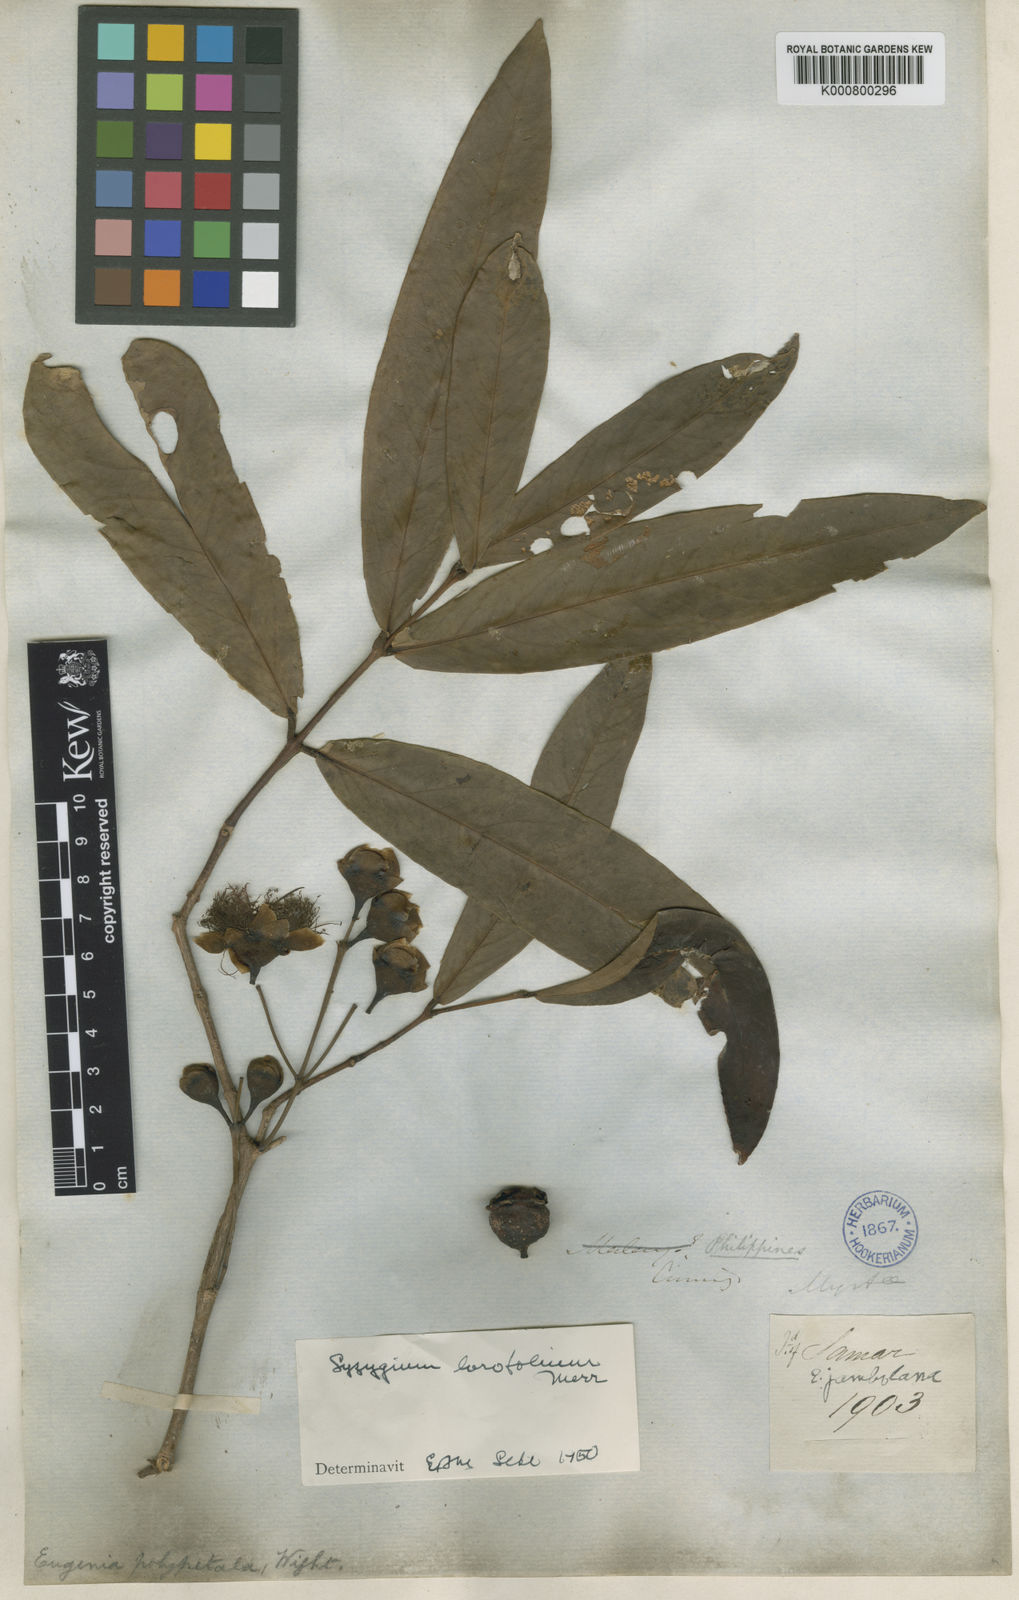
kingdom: Plantae
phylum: Tracheophyta
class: Magnoliopsida
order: Myrtales
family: Myrtaceae
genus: Syzygium
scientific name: Syzygium lorofolium
